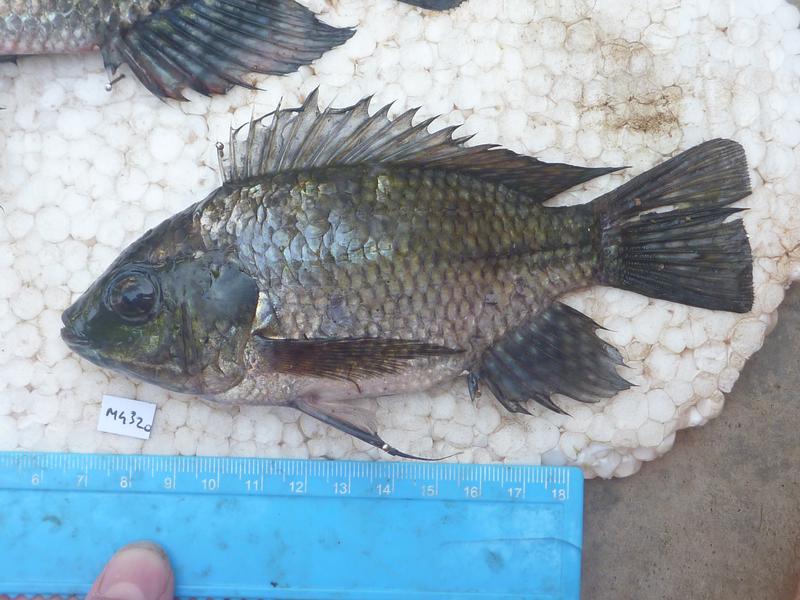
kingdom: Animalia
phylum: Chordata
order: Perciformes
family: Cichlidae
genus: Oreochromis
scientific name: Oreochromis leucostictus
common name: Blue spotted tilapia
